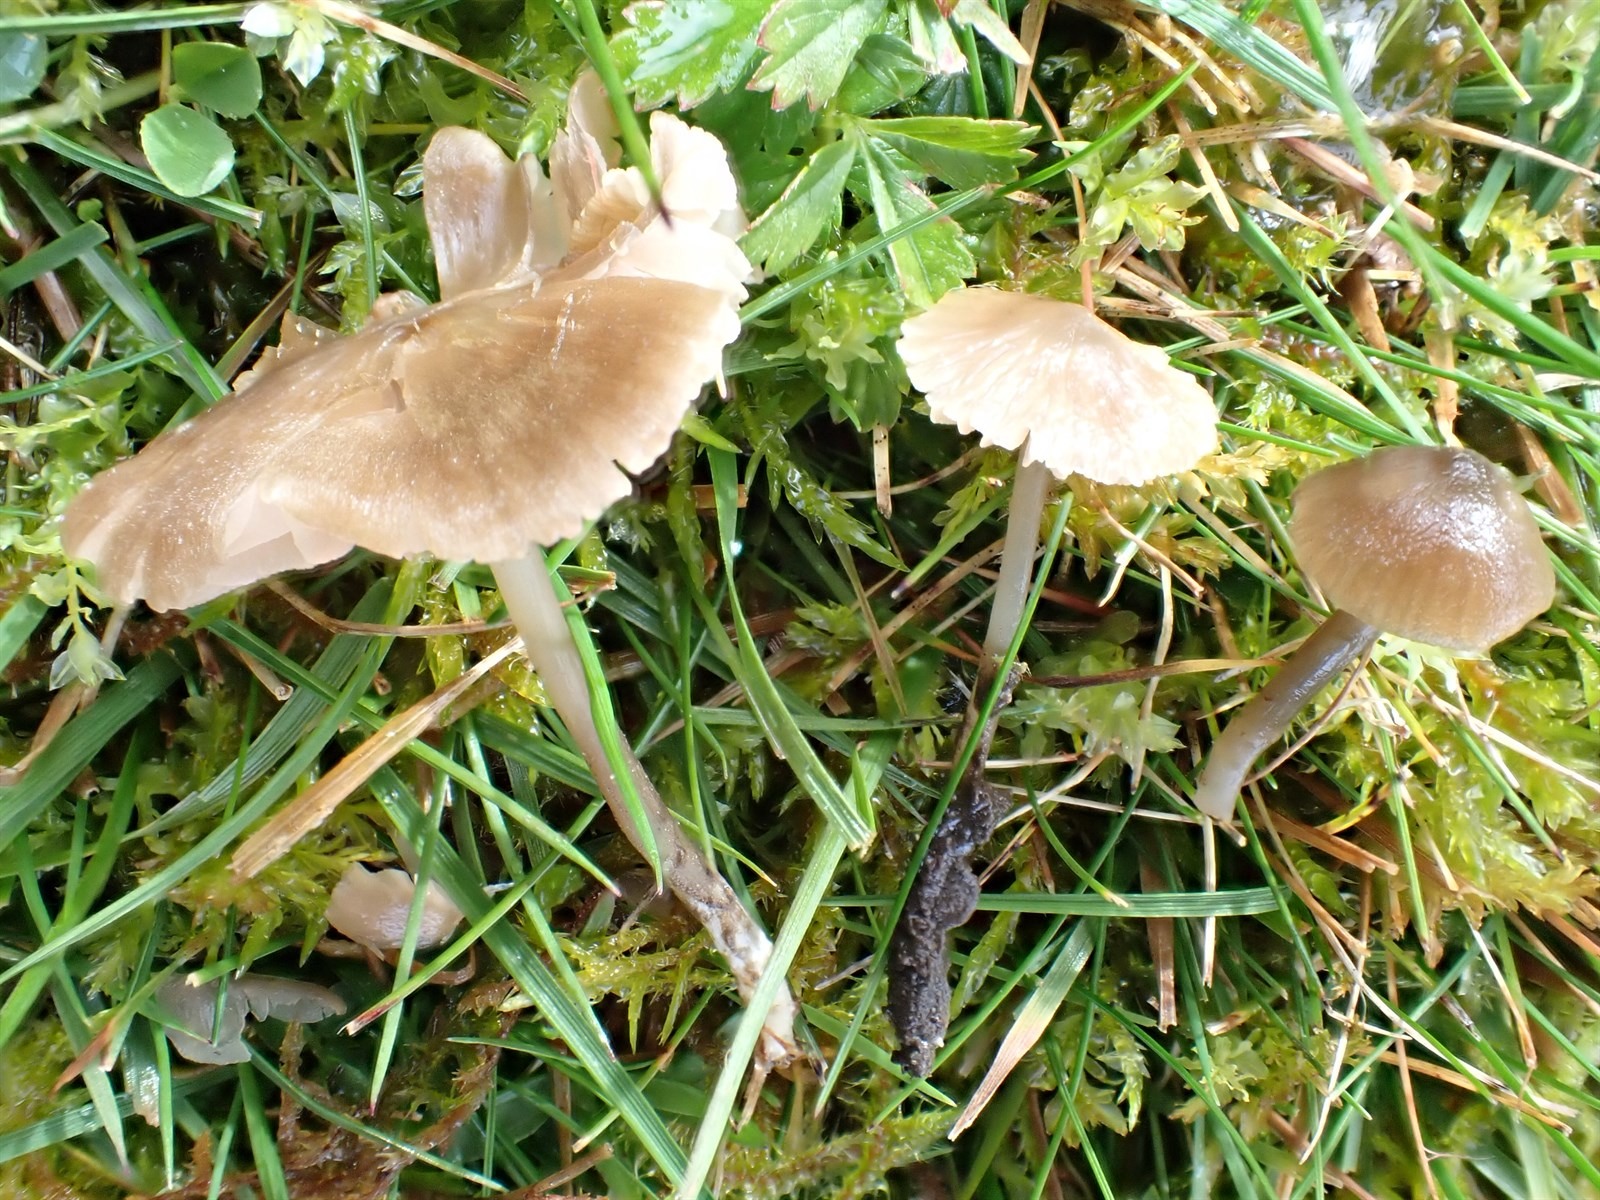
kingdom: Fungi
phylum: Basidiomycota
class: Agaricomycetes
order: Agaricales
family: Entolomataceae
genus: Entoloma
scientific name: Entoloma rhombisporoides
